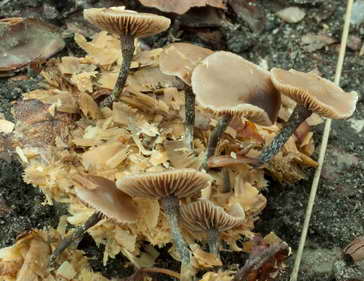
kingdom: Fungi
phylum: Basidiomycota
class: Agaricomycetes
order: Agaricales
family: Strophariaceae
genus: Deconica
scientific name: Deconica crobula
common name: træflis-stråhat
